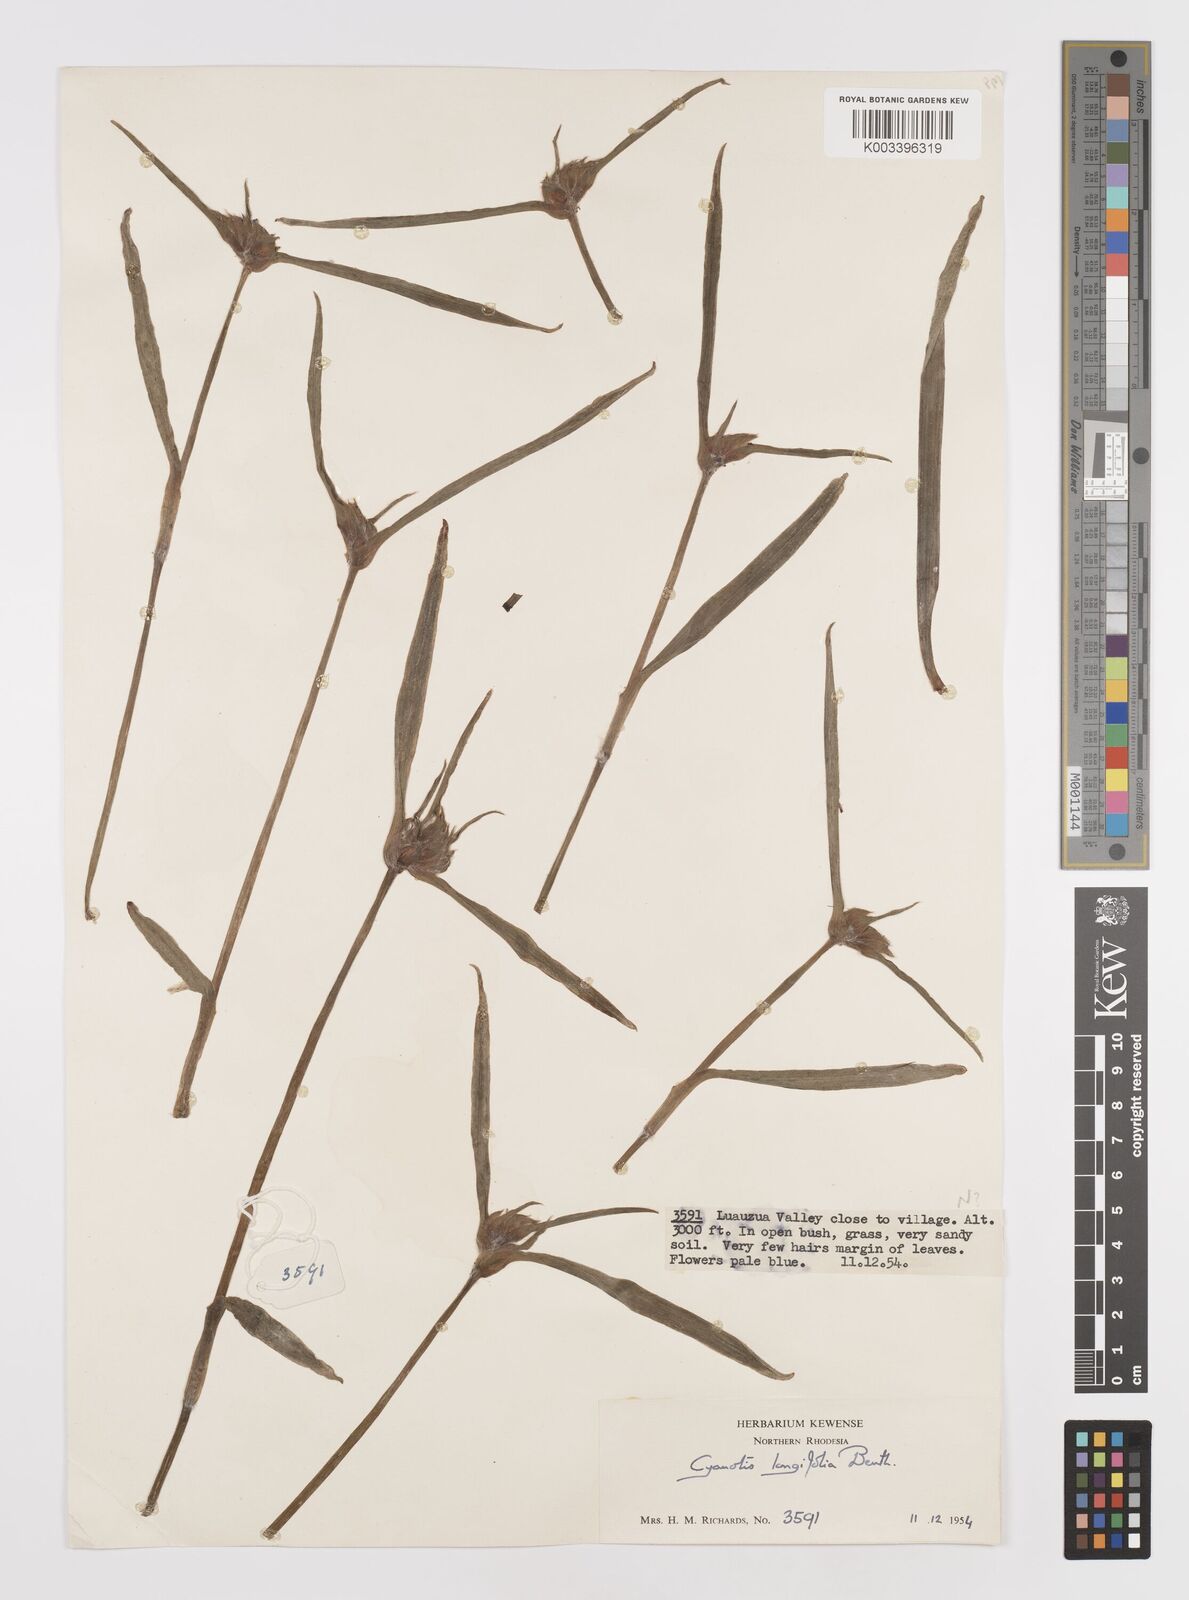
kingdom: Plantae
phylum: Tracheophyta
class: Liliopsida
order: Commelinales
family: Commelinaceae
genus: Cyanotis
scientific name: Cyanotis longifolia
